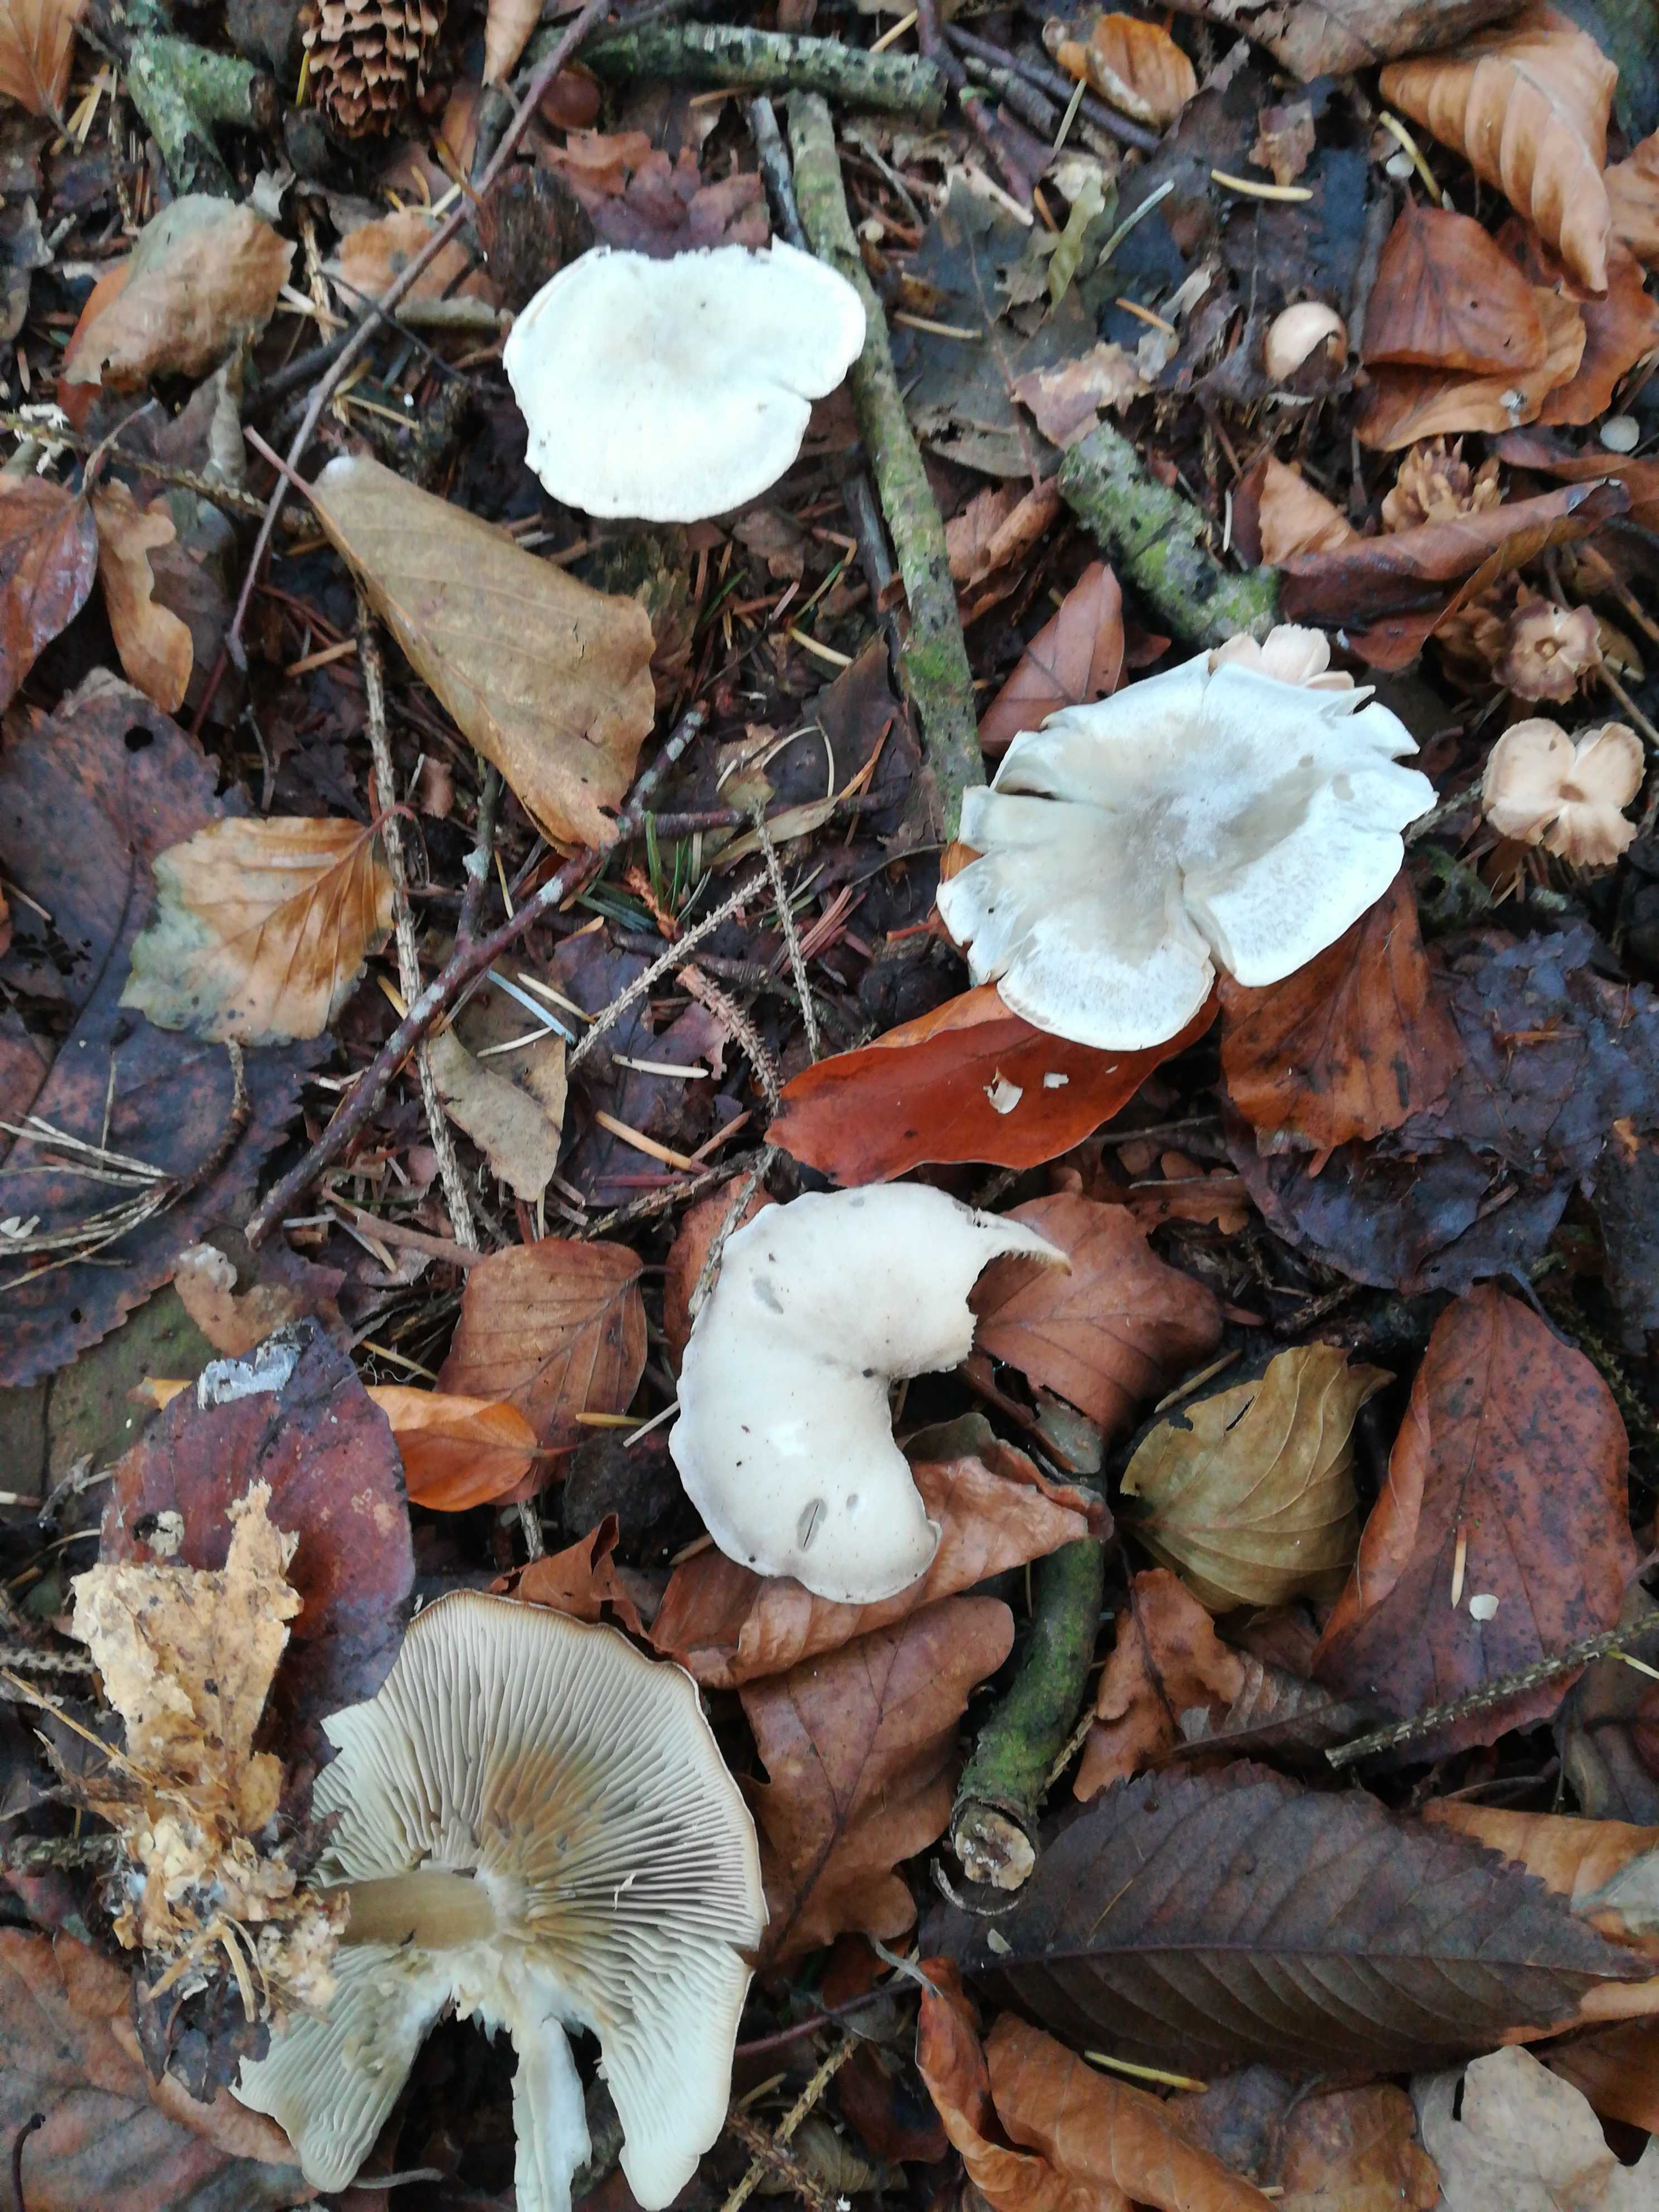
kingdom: Fungi
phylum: Basidiomycota
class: Agaricomycetes
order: Agaricales
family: Tricholomataceae
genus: Clitocybe
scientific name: Clitocybe odora
